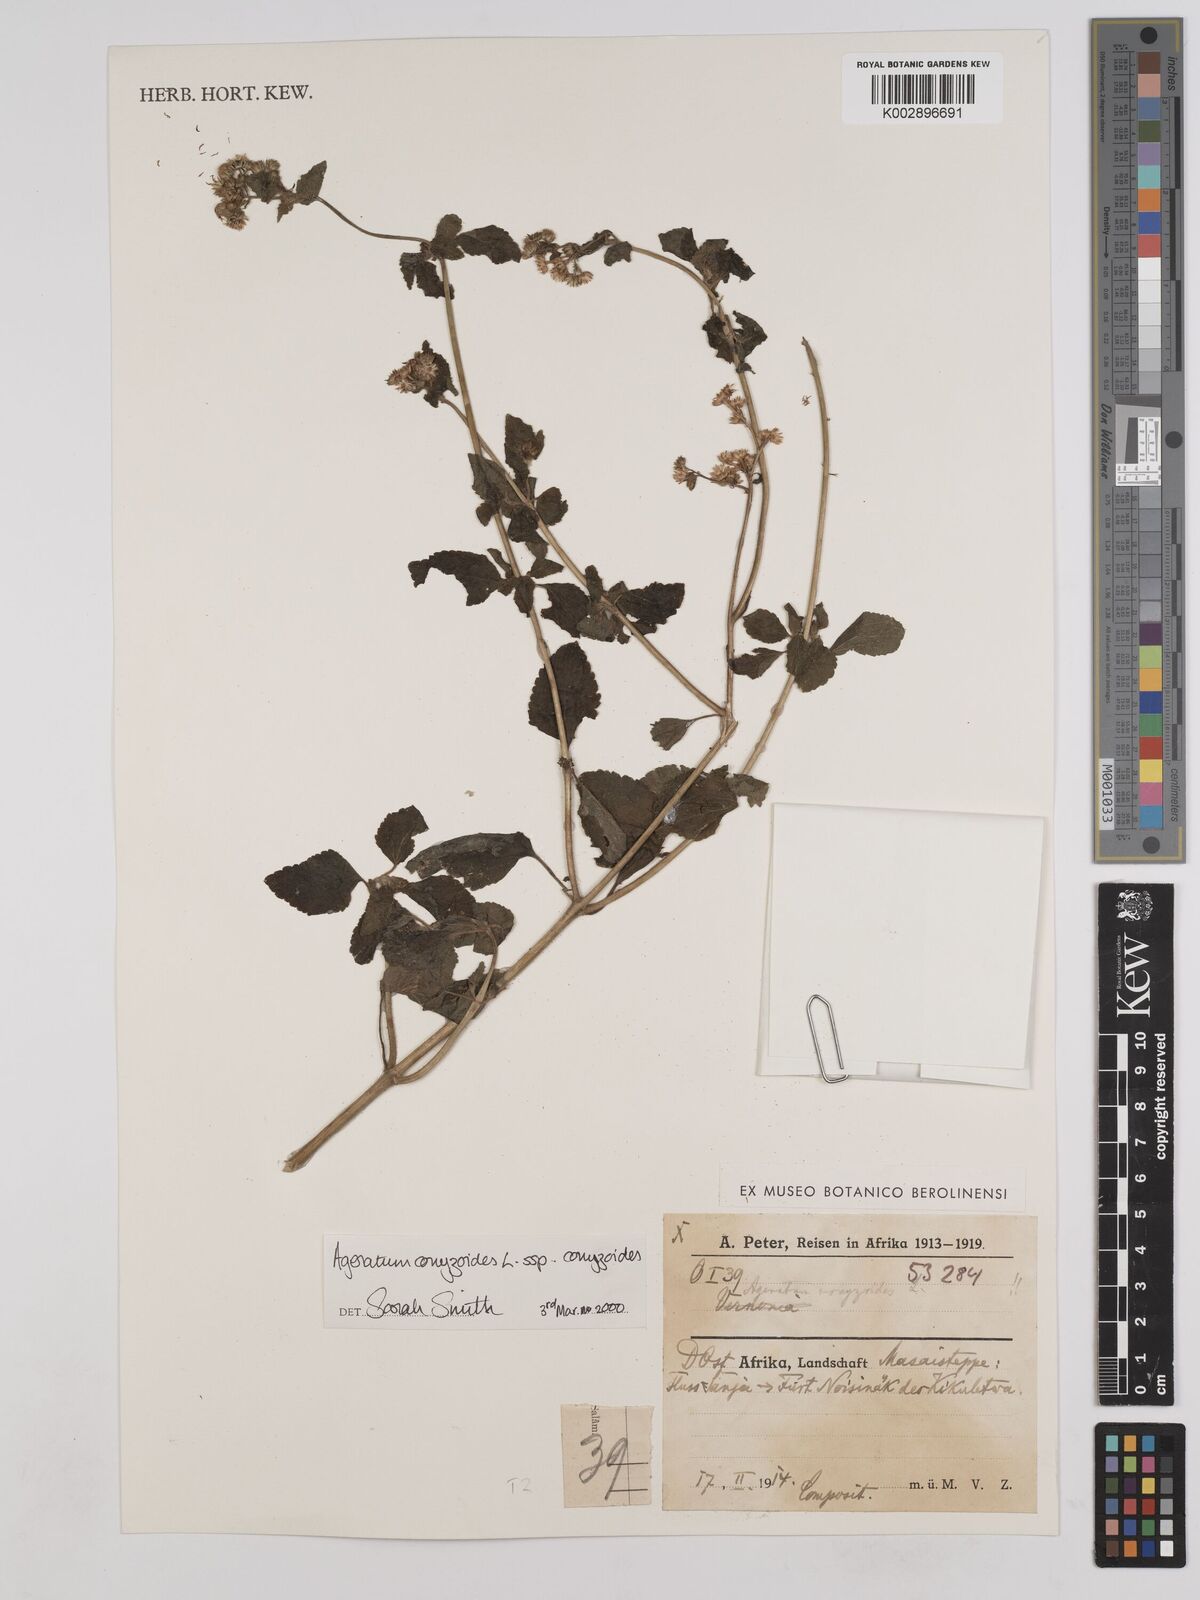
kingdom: Plantae
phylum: Tracheophyta
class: Magnoliopsida
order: Asterales
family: Asteraceae
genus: Ageratum
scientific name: Ageratum conyzoides
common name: Tropical whiteweed
